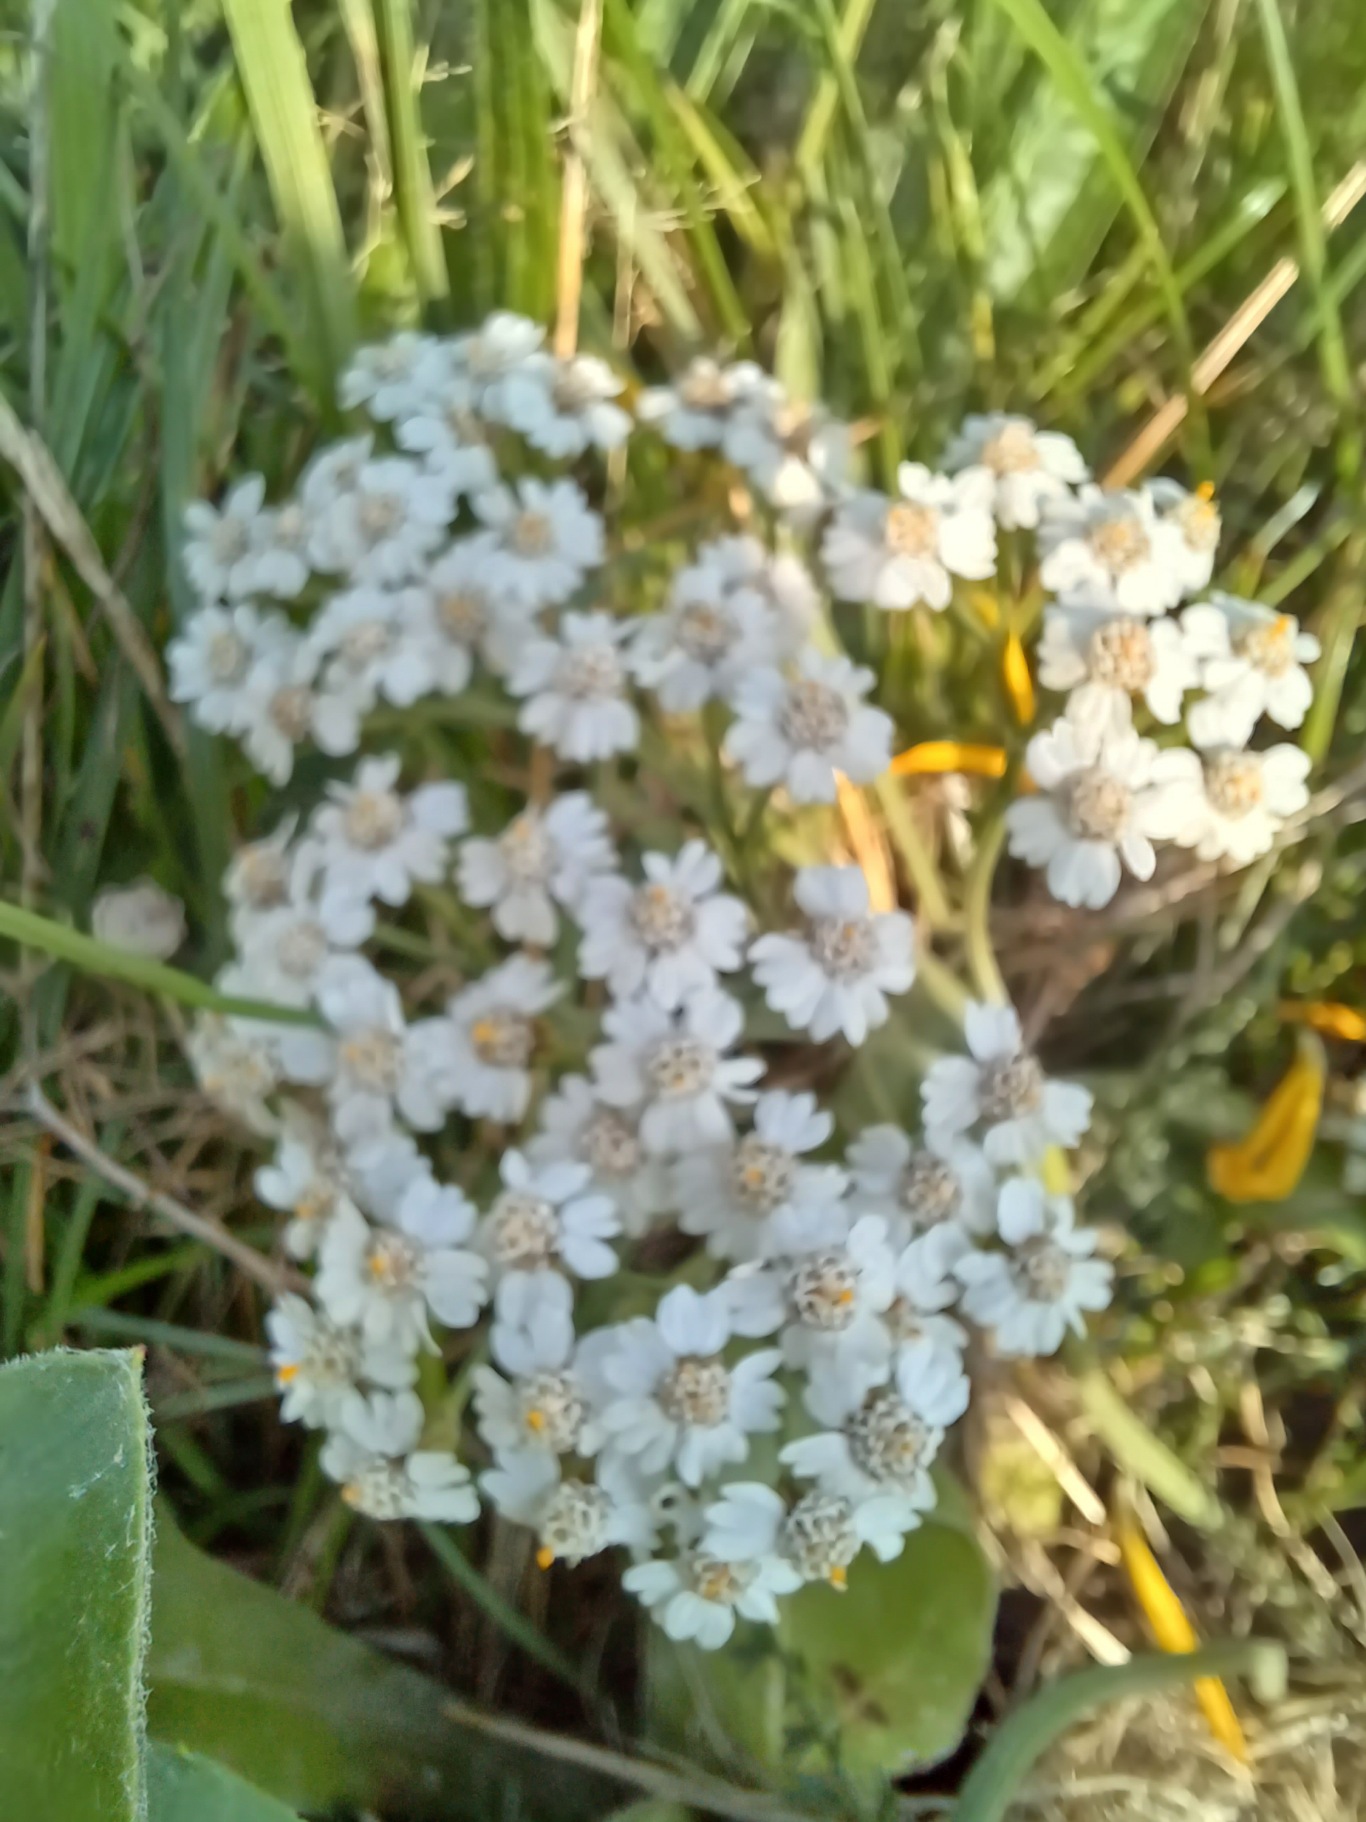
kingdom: Plantae
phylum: Tracheophyta
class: Magnoliopsida
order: Asterales
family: Asteraceae
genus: Achillea
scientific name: Achillea ptarmica
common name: Nyse-røllike
